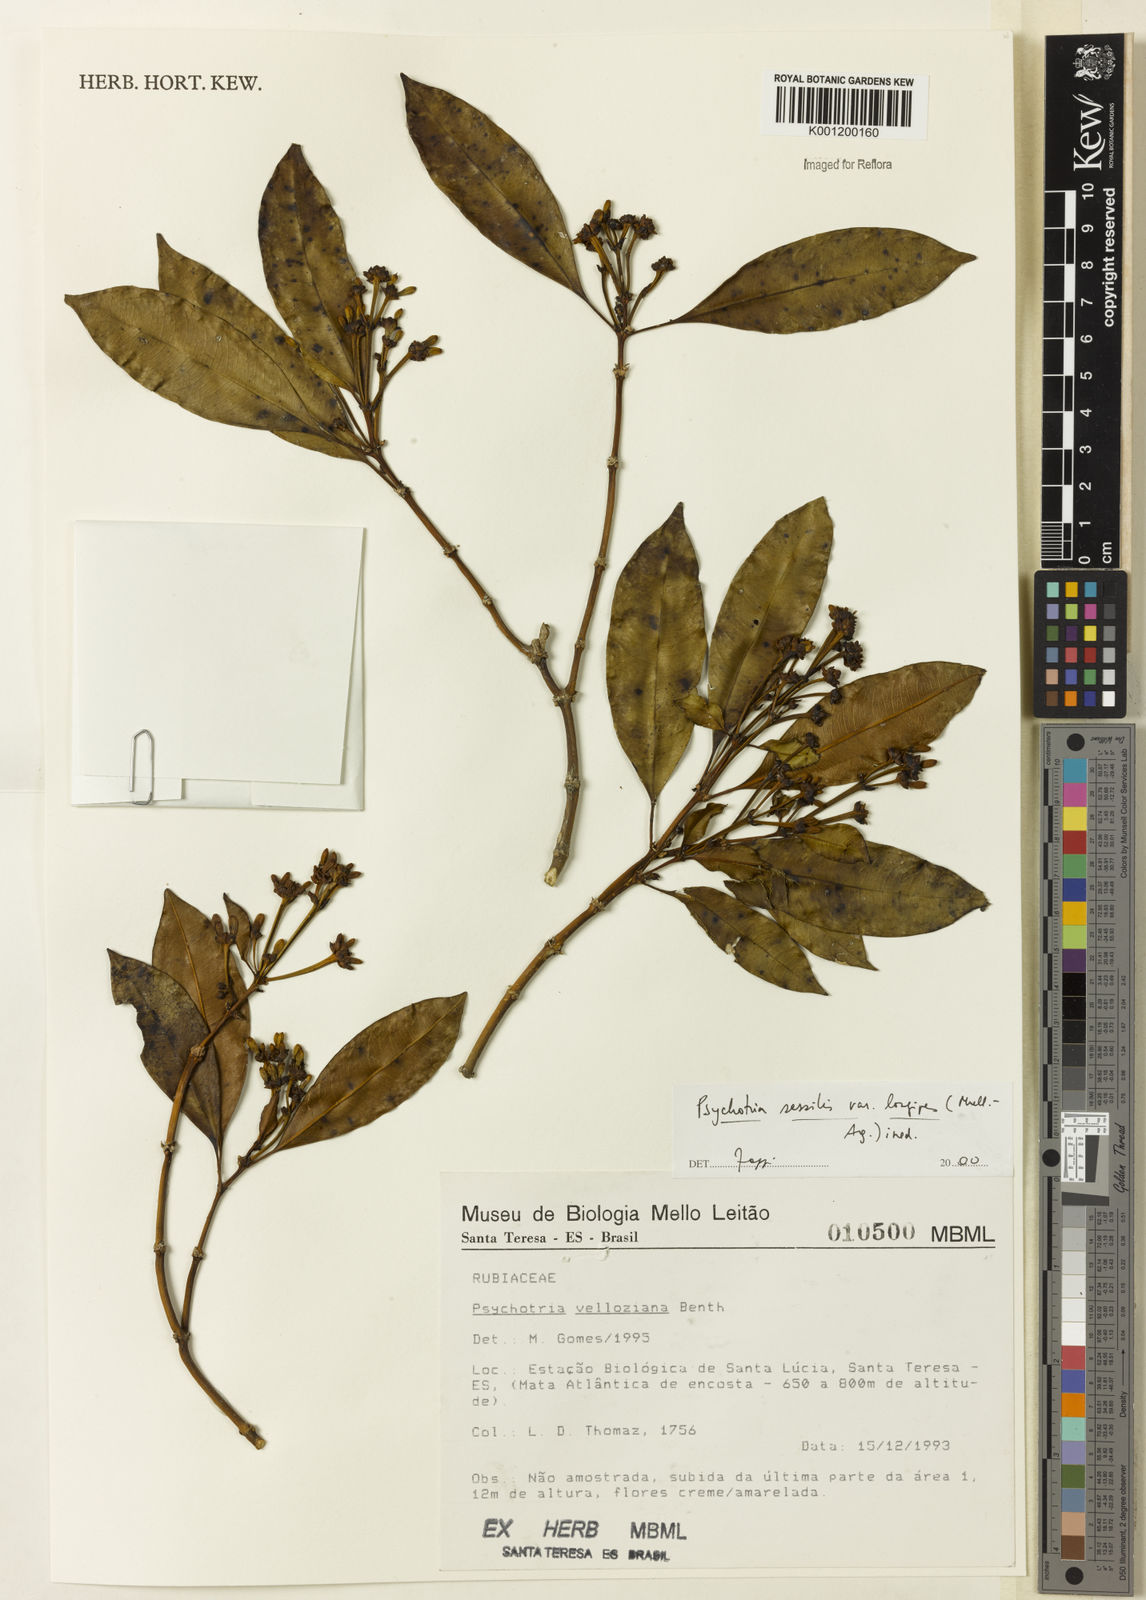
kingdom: Plantae
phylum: Tracheophyta
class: Magnoliopsida
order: Gentianales
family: Rubiaceae
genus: Rudgea
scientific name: Rudgea sessilis
